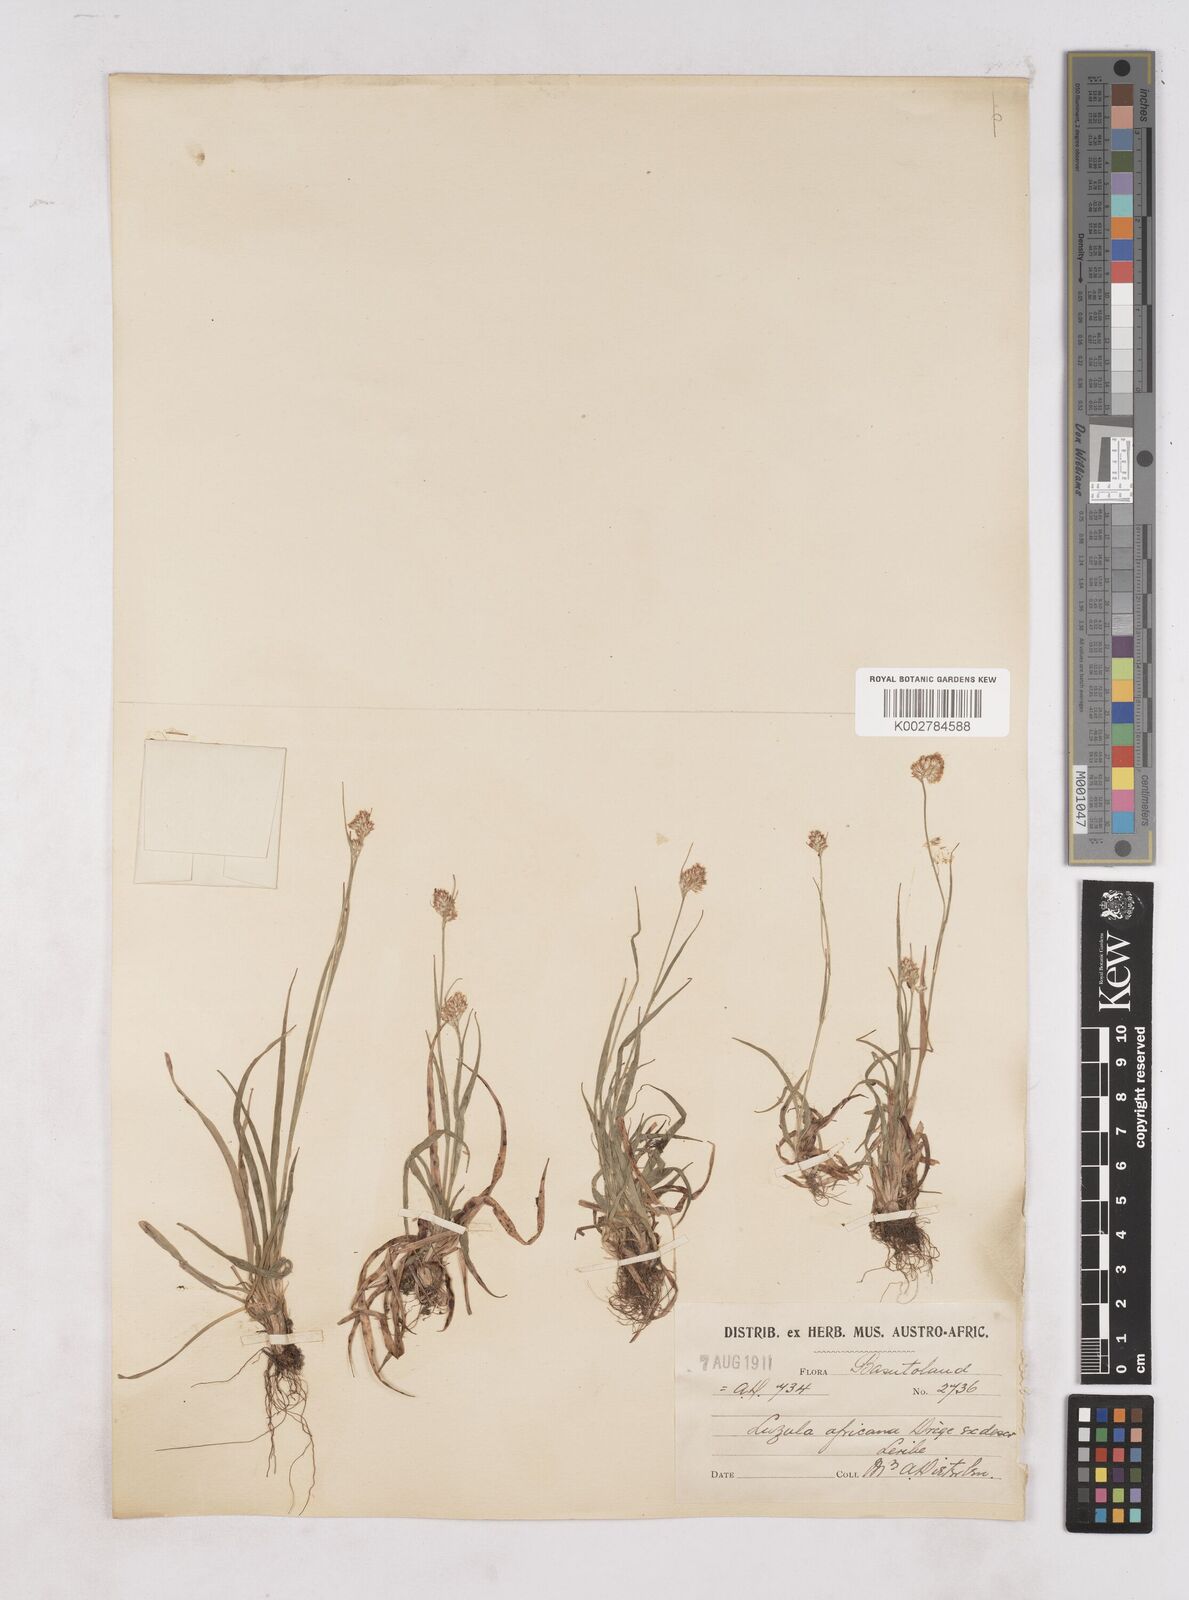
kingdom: Plantae
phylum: Tracheophyta
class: Liliopsida
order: Poales
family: Juncaceae
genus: Luzula
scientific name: Luzula africana
